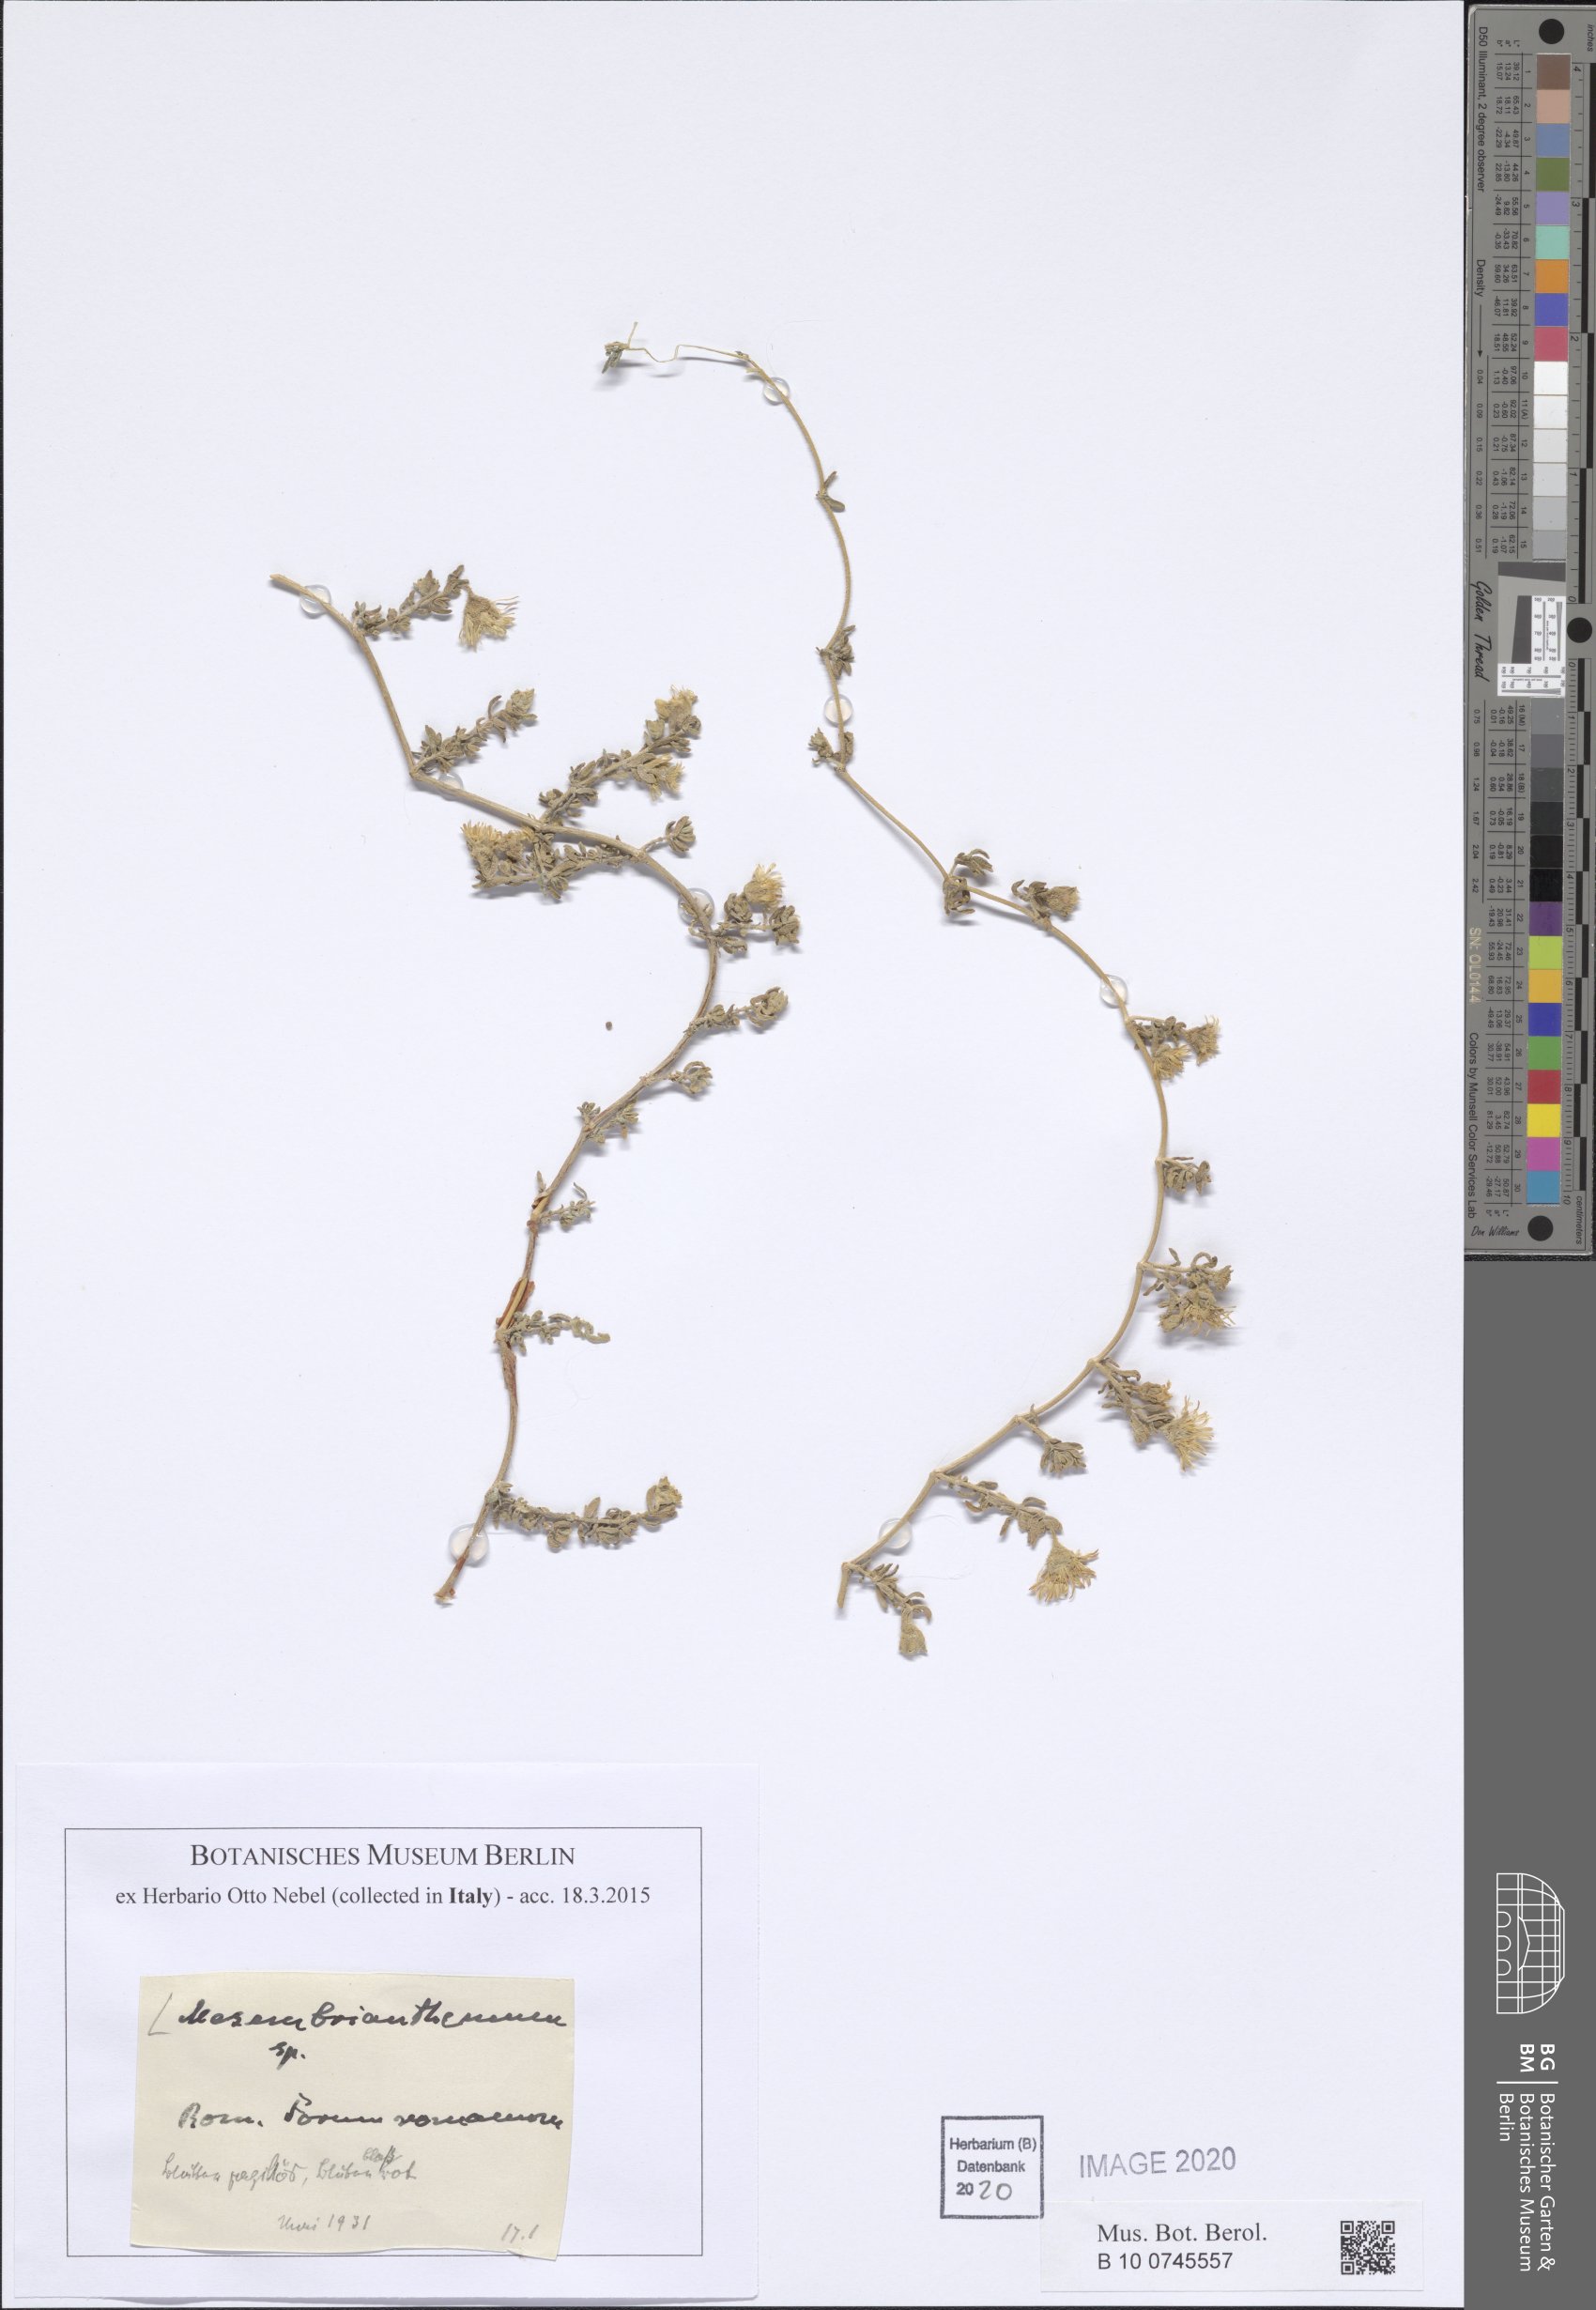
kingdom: Plantae
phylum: Tracheophyta
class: Magnoliopsida
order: Caryophyllales
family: Aizoaceae
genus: Mesembryanthemum
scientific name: Mesembryanthemum
